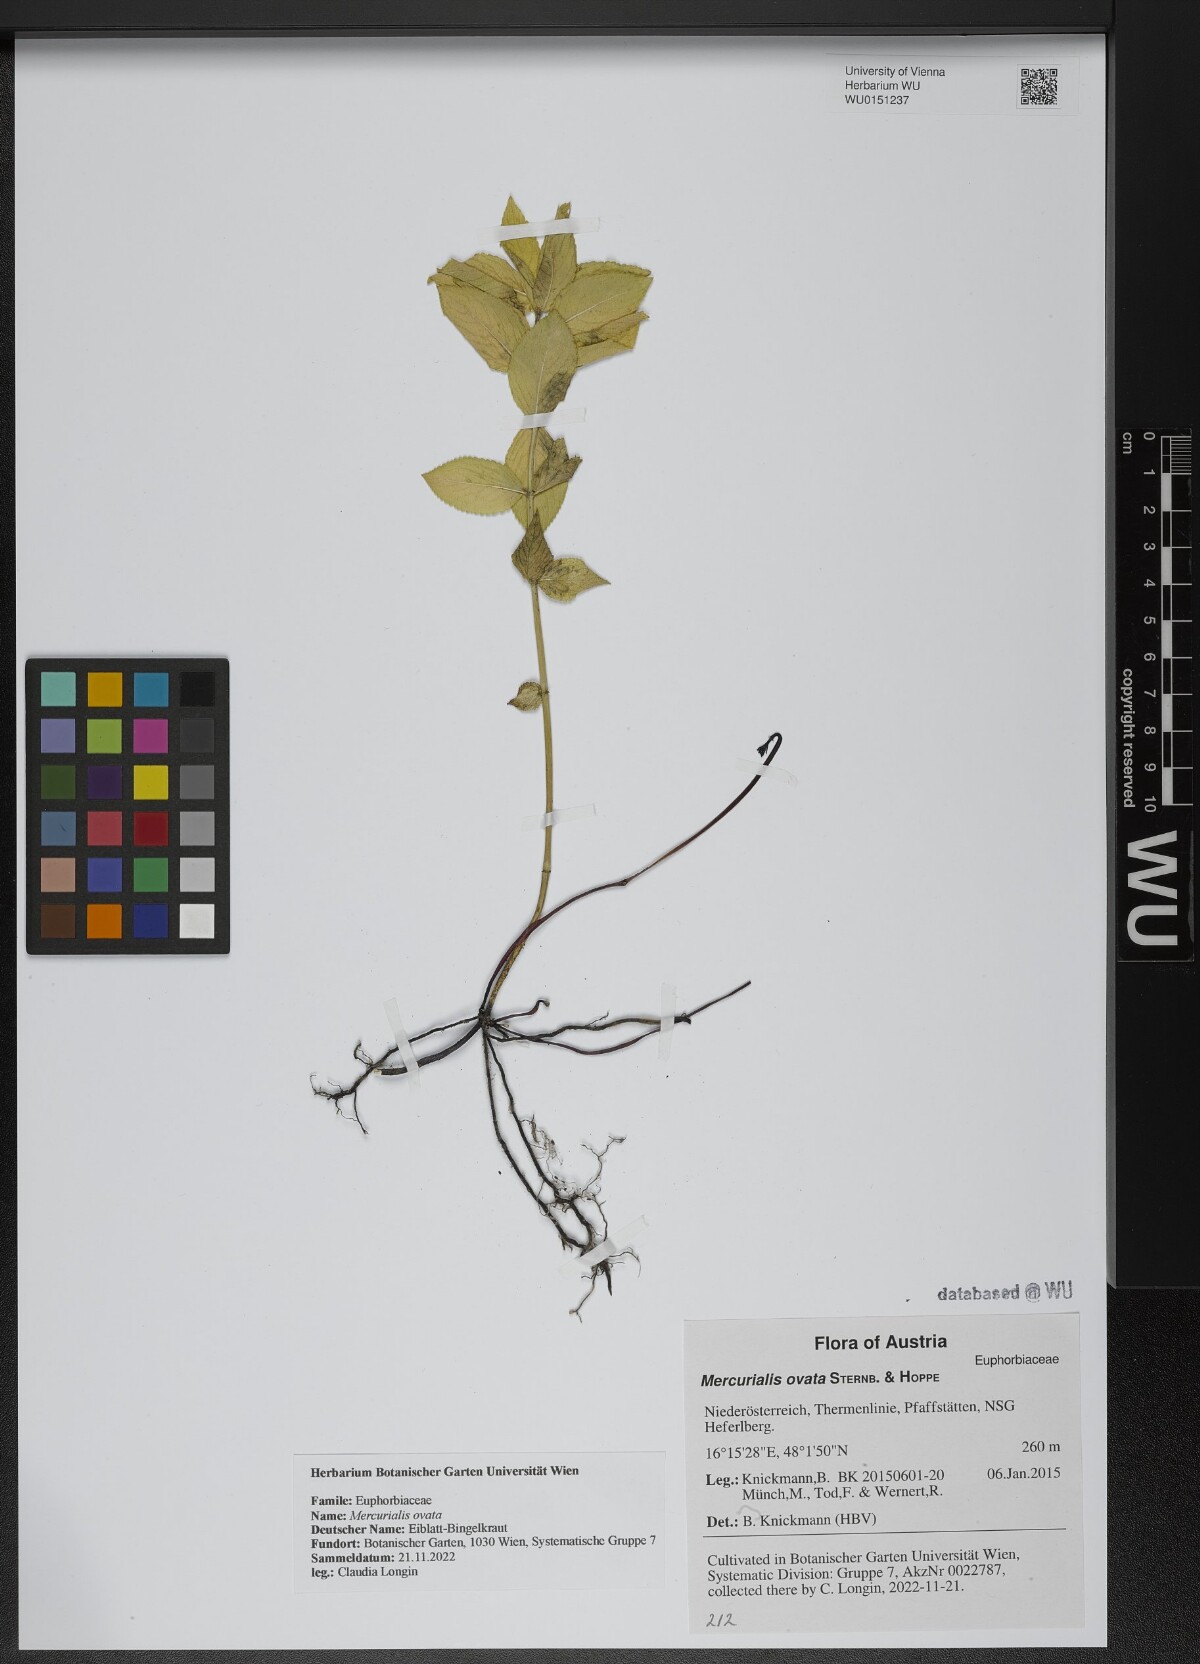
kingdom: Plantae
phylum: Tracheophyta
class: Magnoliopsida
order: Malpighiales
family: Euphorbiaceae
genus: Mercurialis
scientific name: Mercurialis ovata
